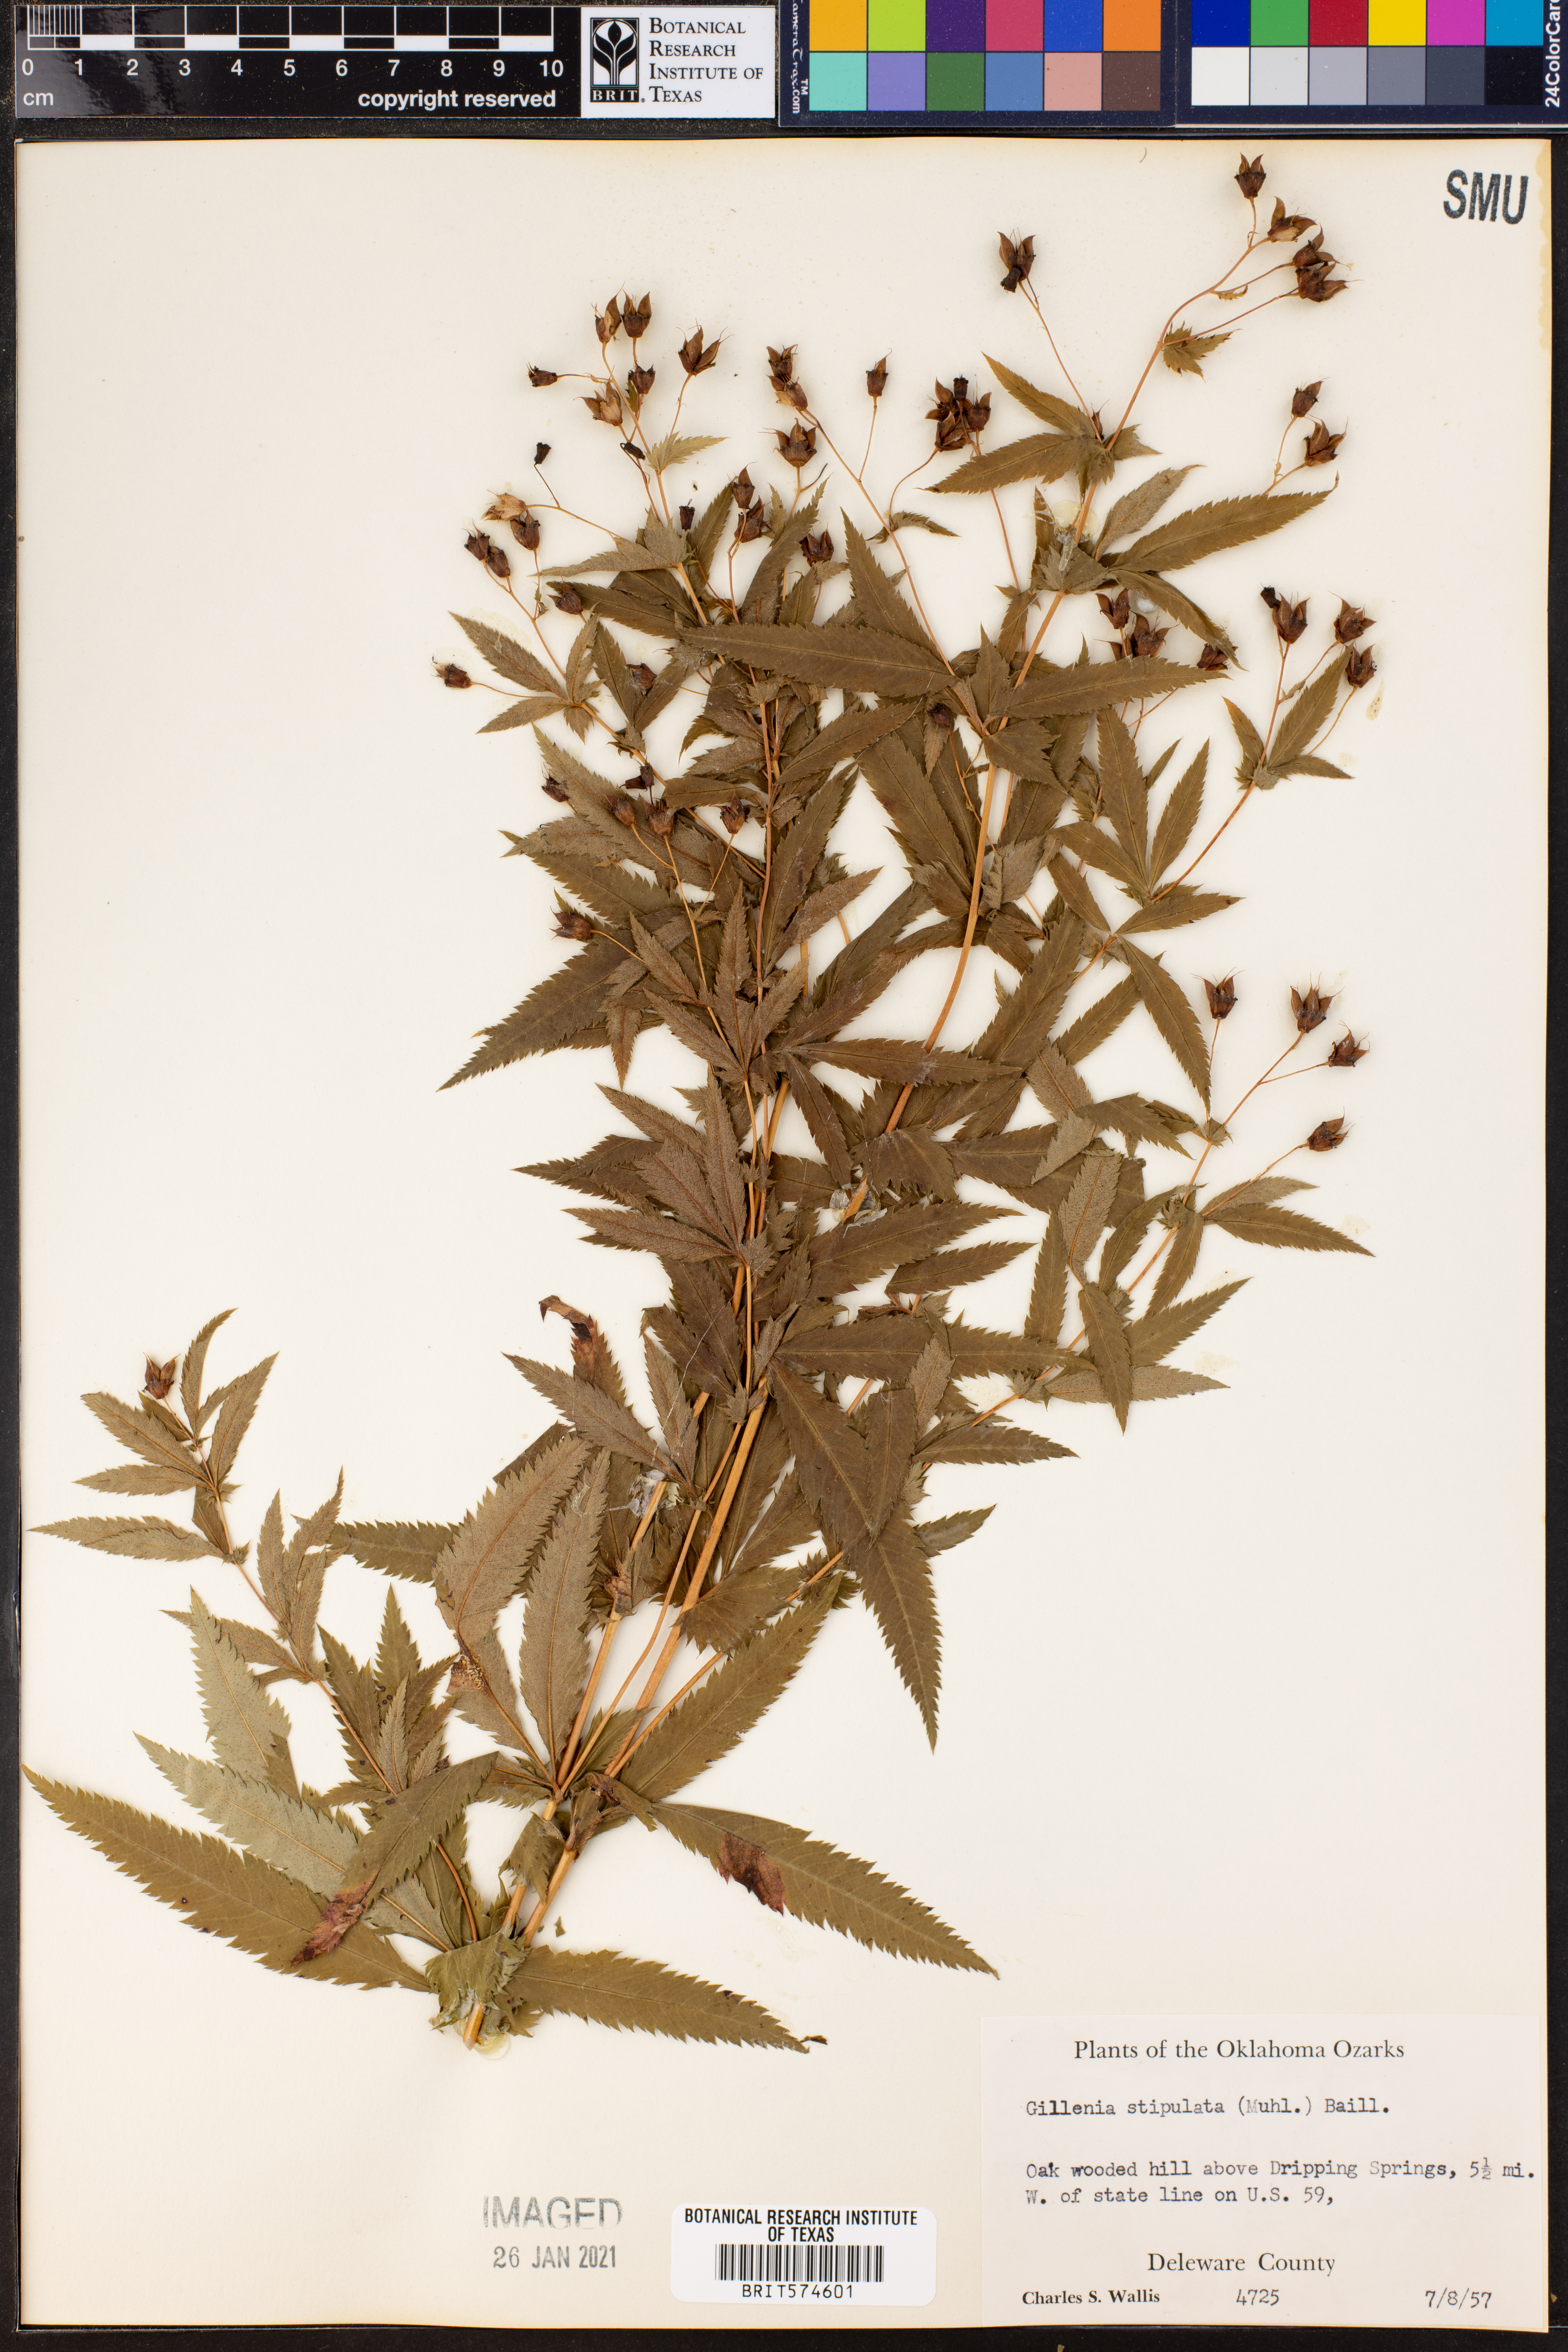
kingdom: Plantae
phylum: Tracheophyta
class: Magnoliopsida
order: Rosales
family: Rosaceae
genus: Gillenia
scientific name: Gillenia stipulata
